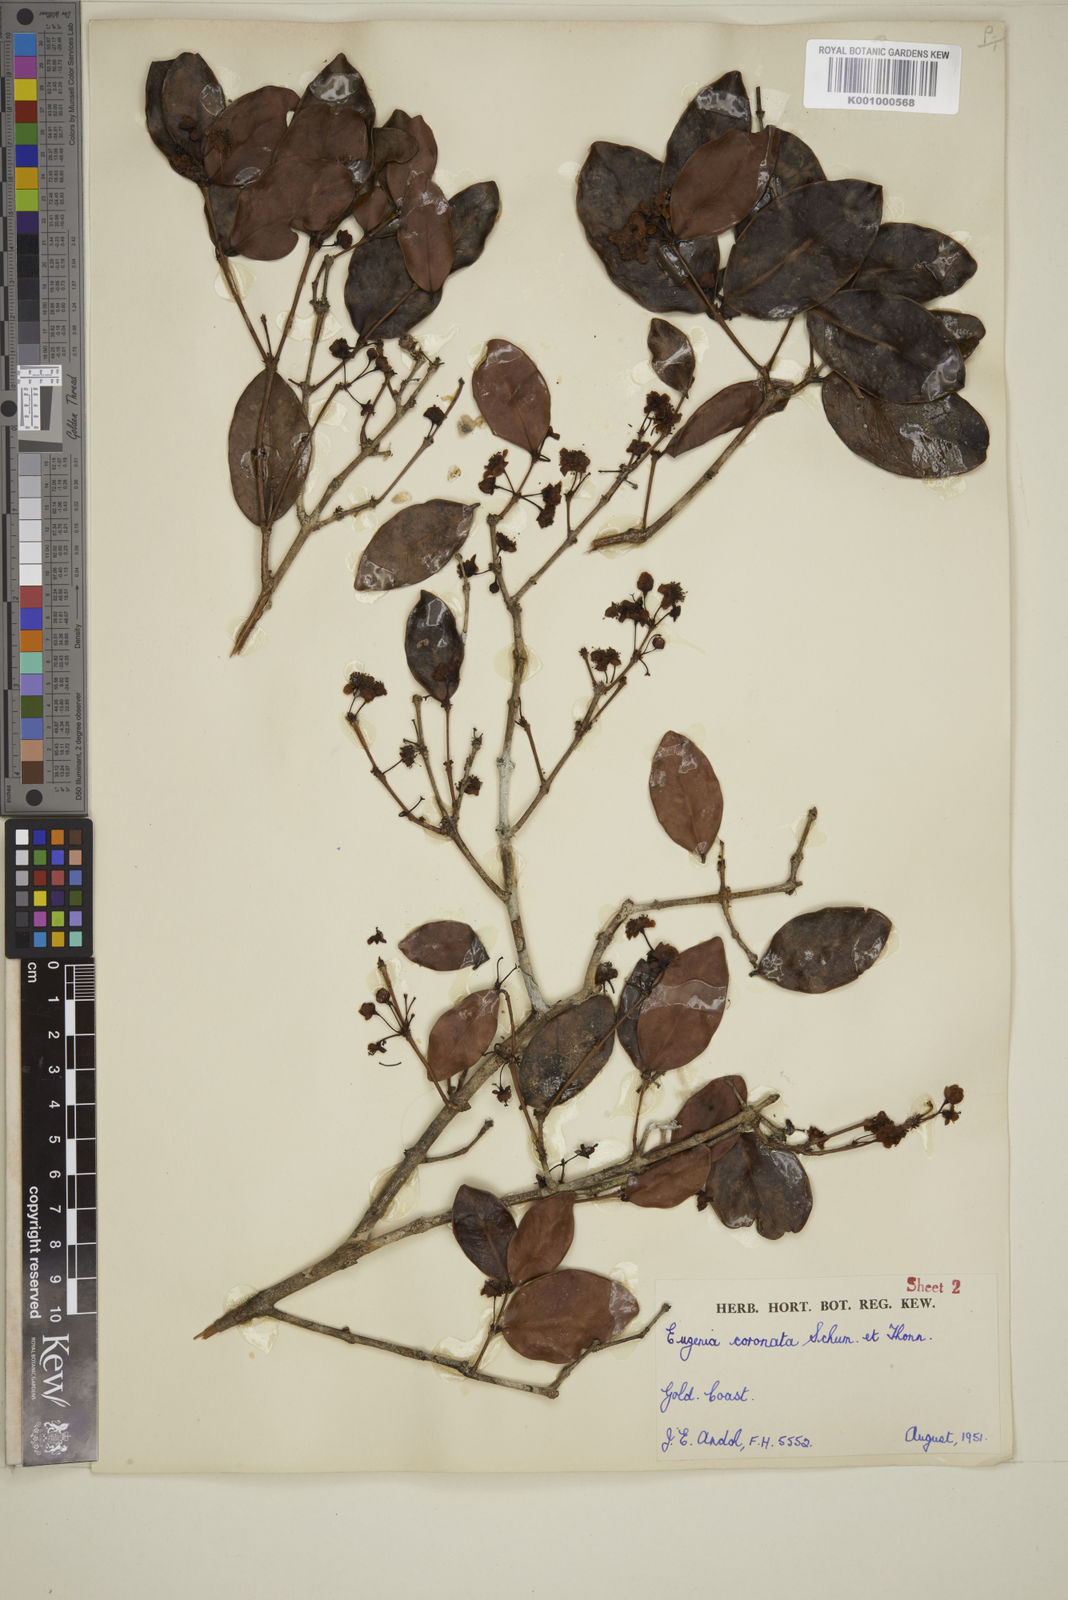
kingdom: Plantae
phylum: Tracheophyta
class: Magnoliopsida
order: Myrtales
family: Myrtaceae
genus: Eugenia
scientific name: Eugenia coronata
